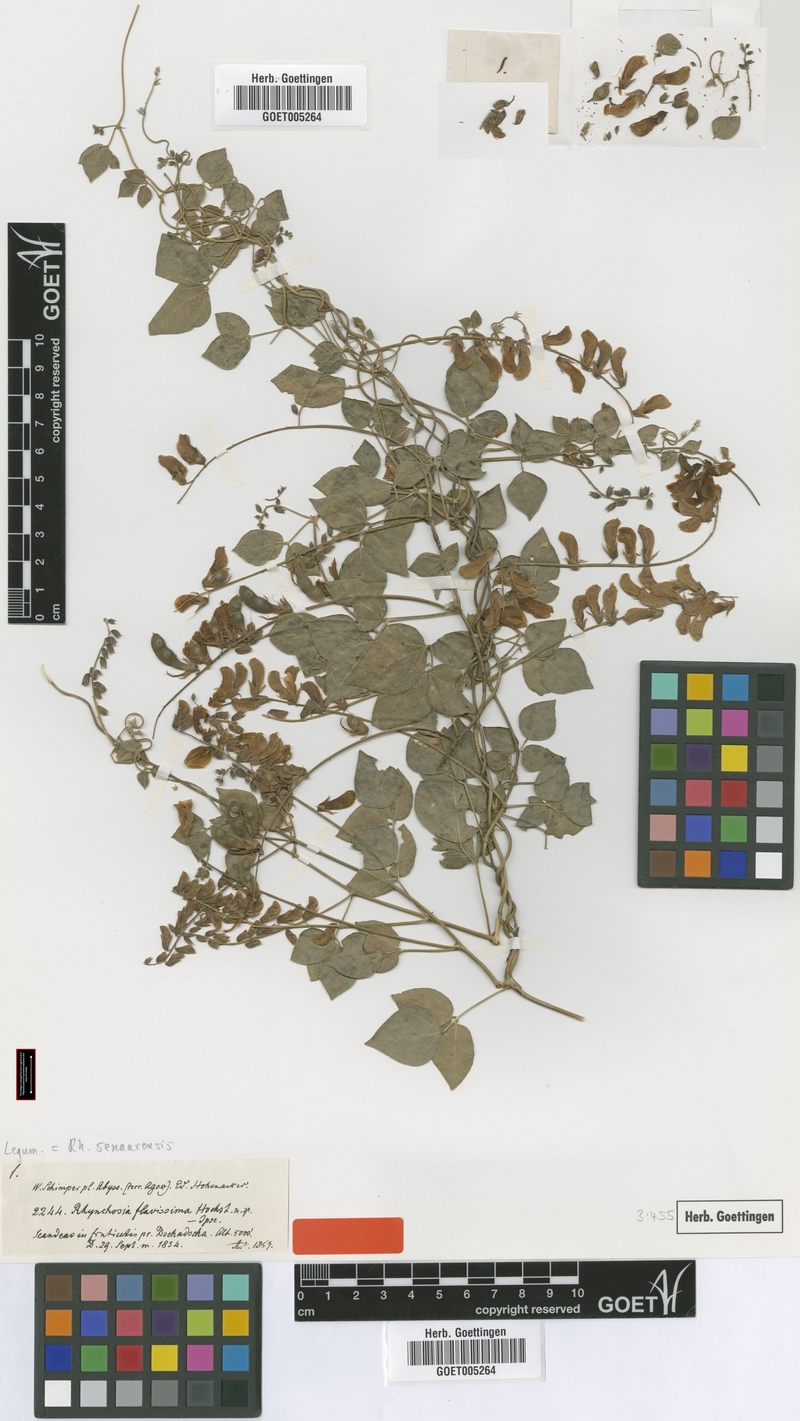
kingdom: Plantae
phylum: Tracheophyta
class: Magnoliopsida
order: Fabales
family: Fabaceae
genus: Rhynchosia
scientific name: Rhynchosia malacophylla
